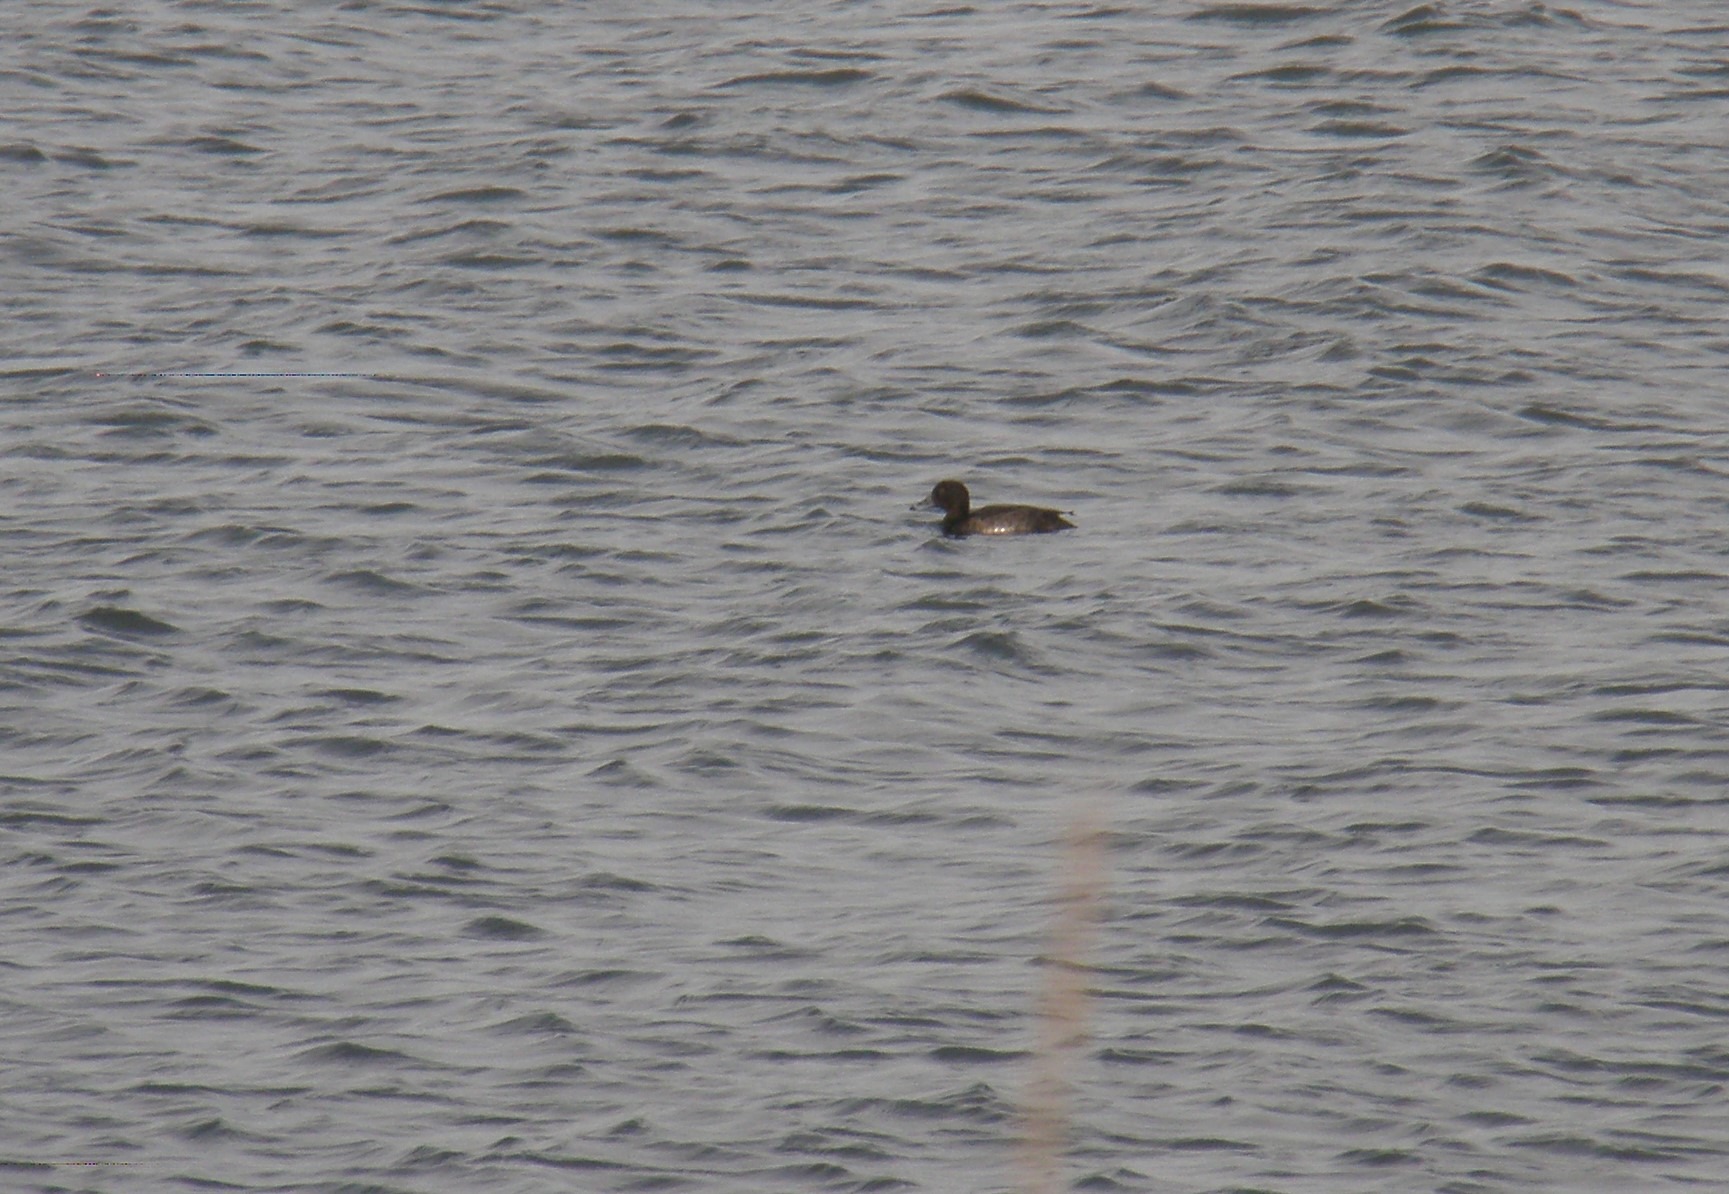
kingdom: Animalia
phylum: Chordata
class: Aves
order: Anseriformes
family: Anatidae
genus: Aythya
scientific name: Aythya fuligula
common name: Troldand
